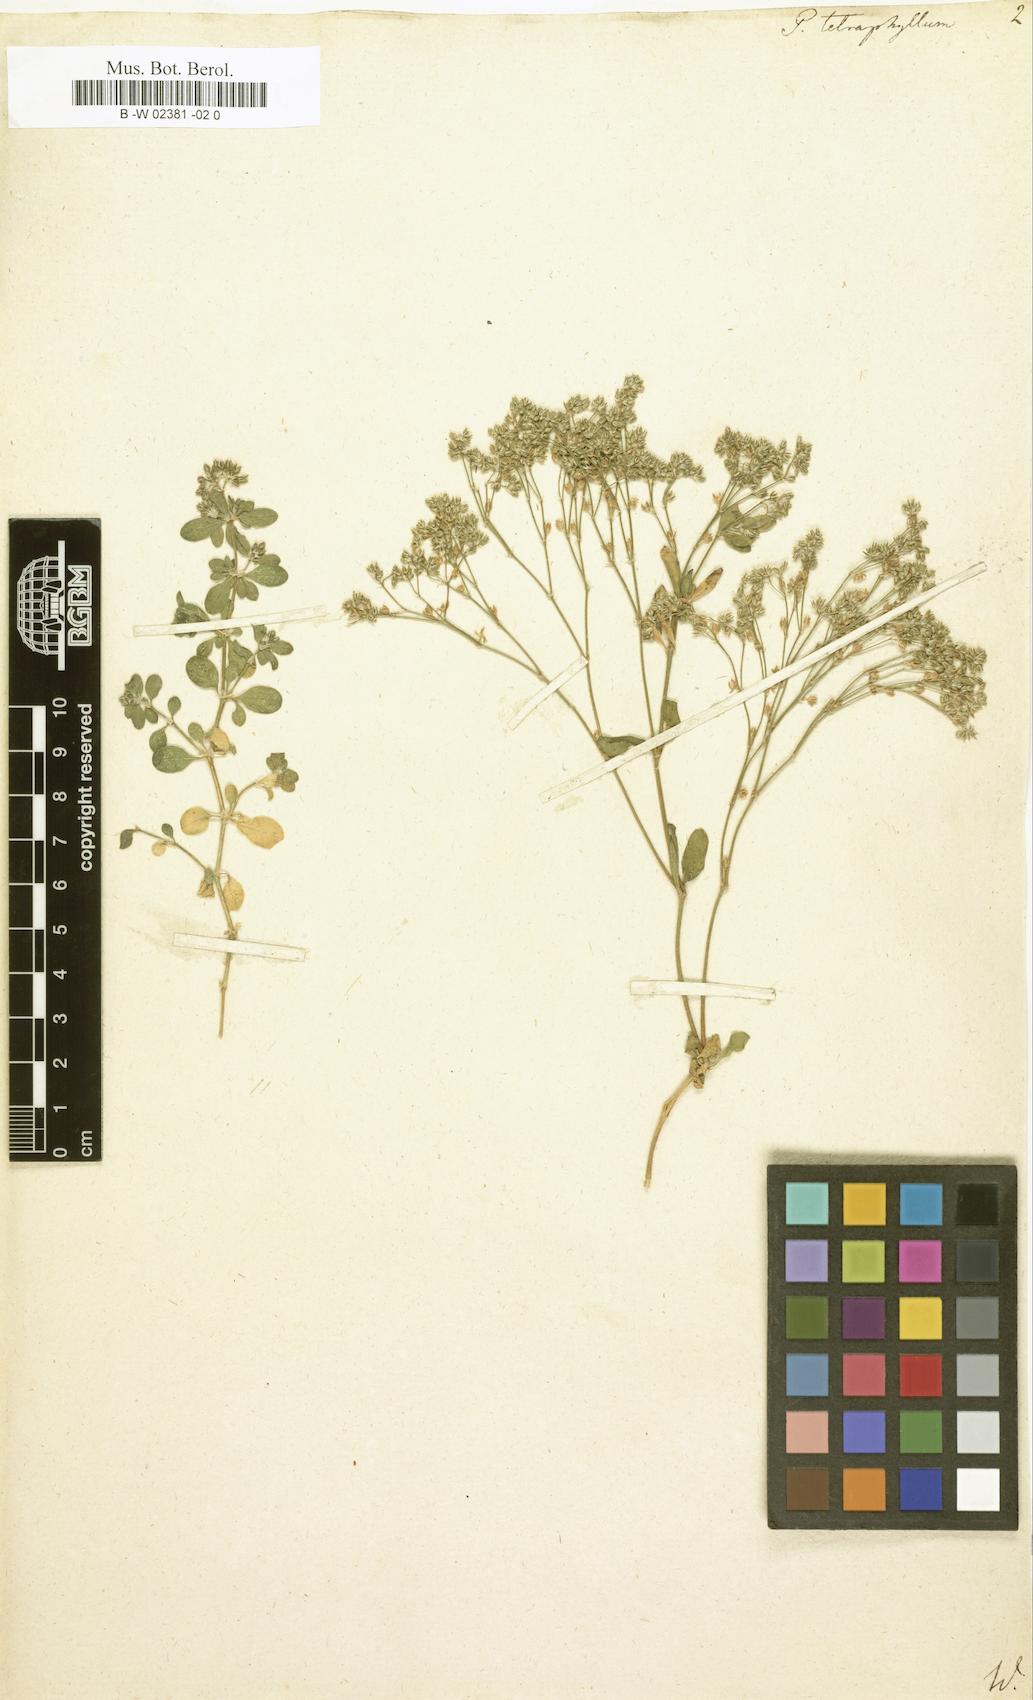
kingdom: Plantae
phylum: Tracheophyta
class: Magnoliopsida
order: Caryophyllales
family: Caryophyllaceae
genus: Polycarpon
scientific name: Polycarpon tetraphyllum
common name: Four-leaved all-seed
